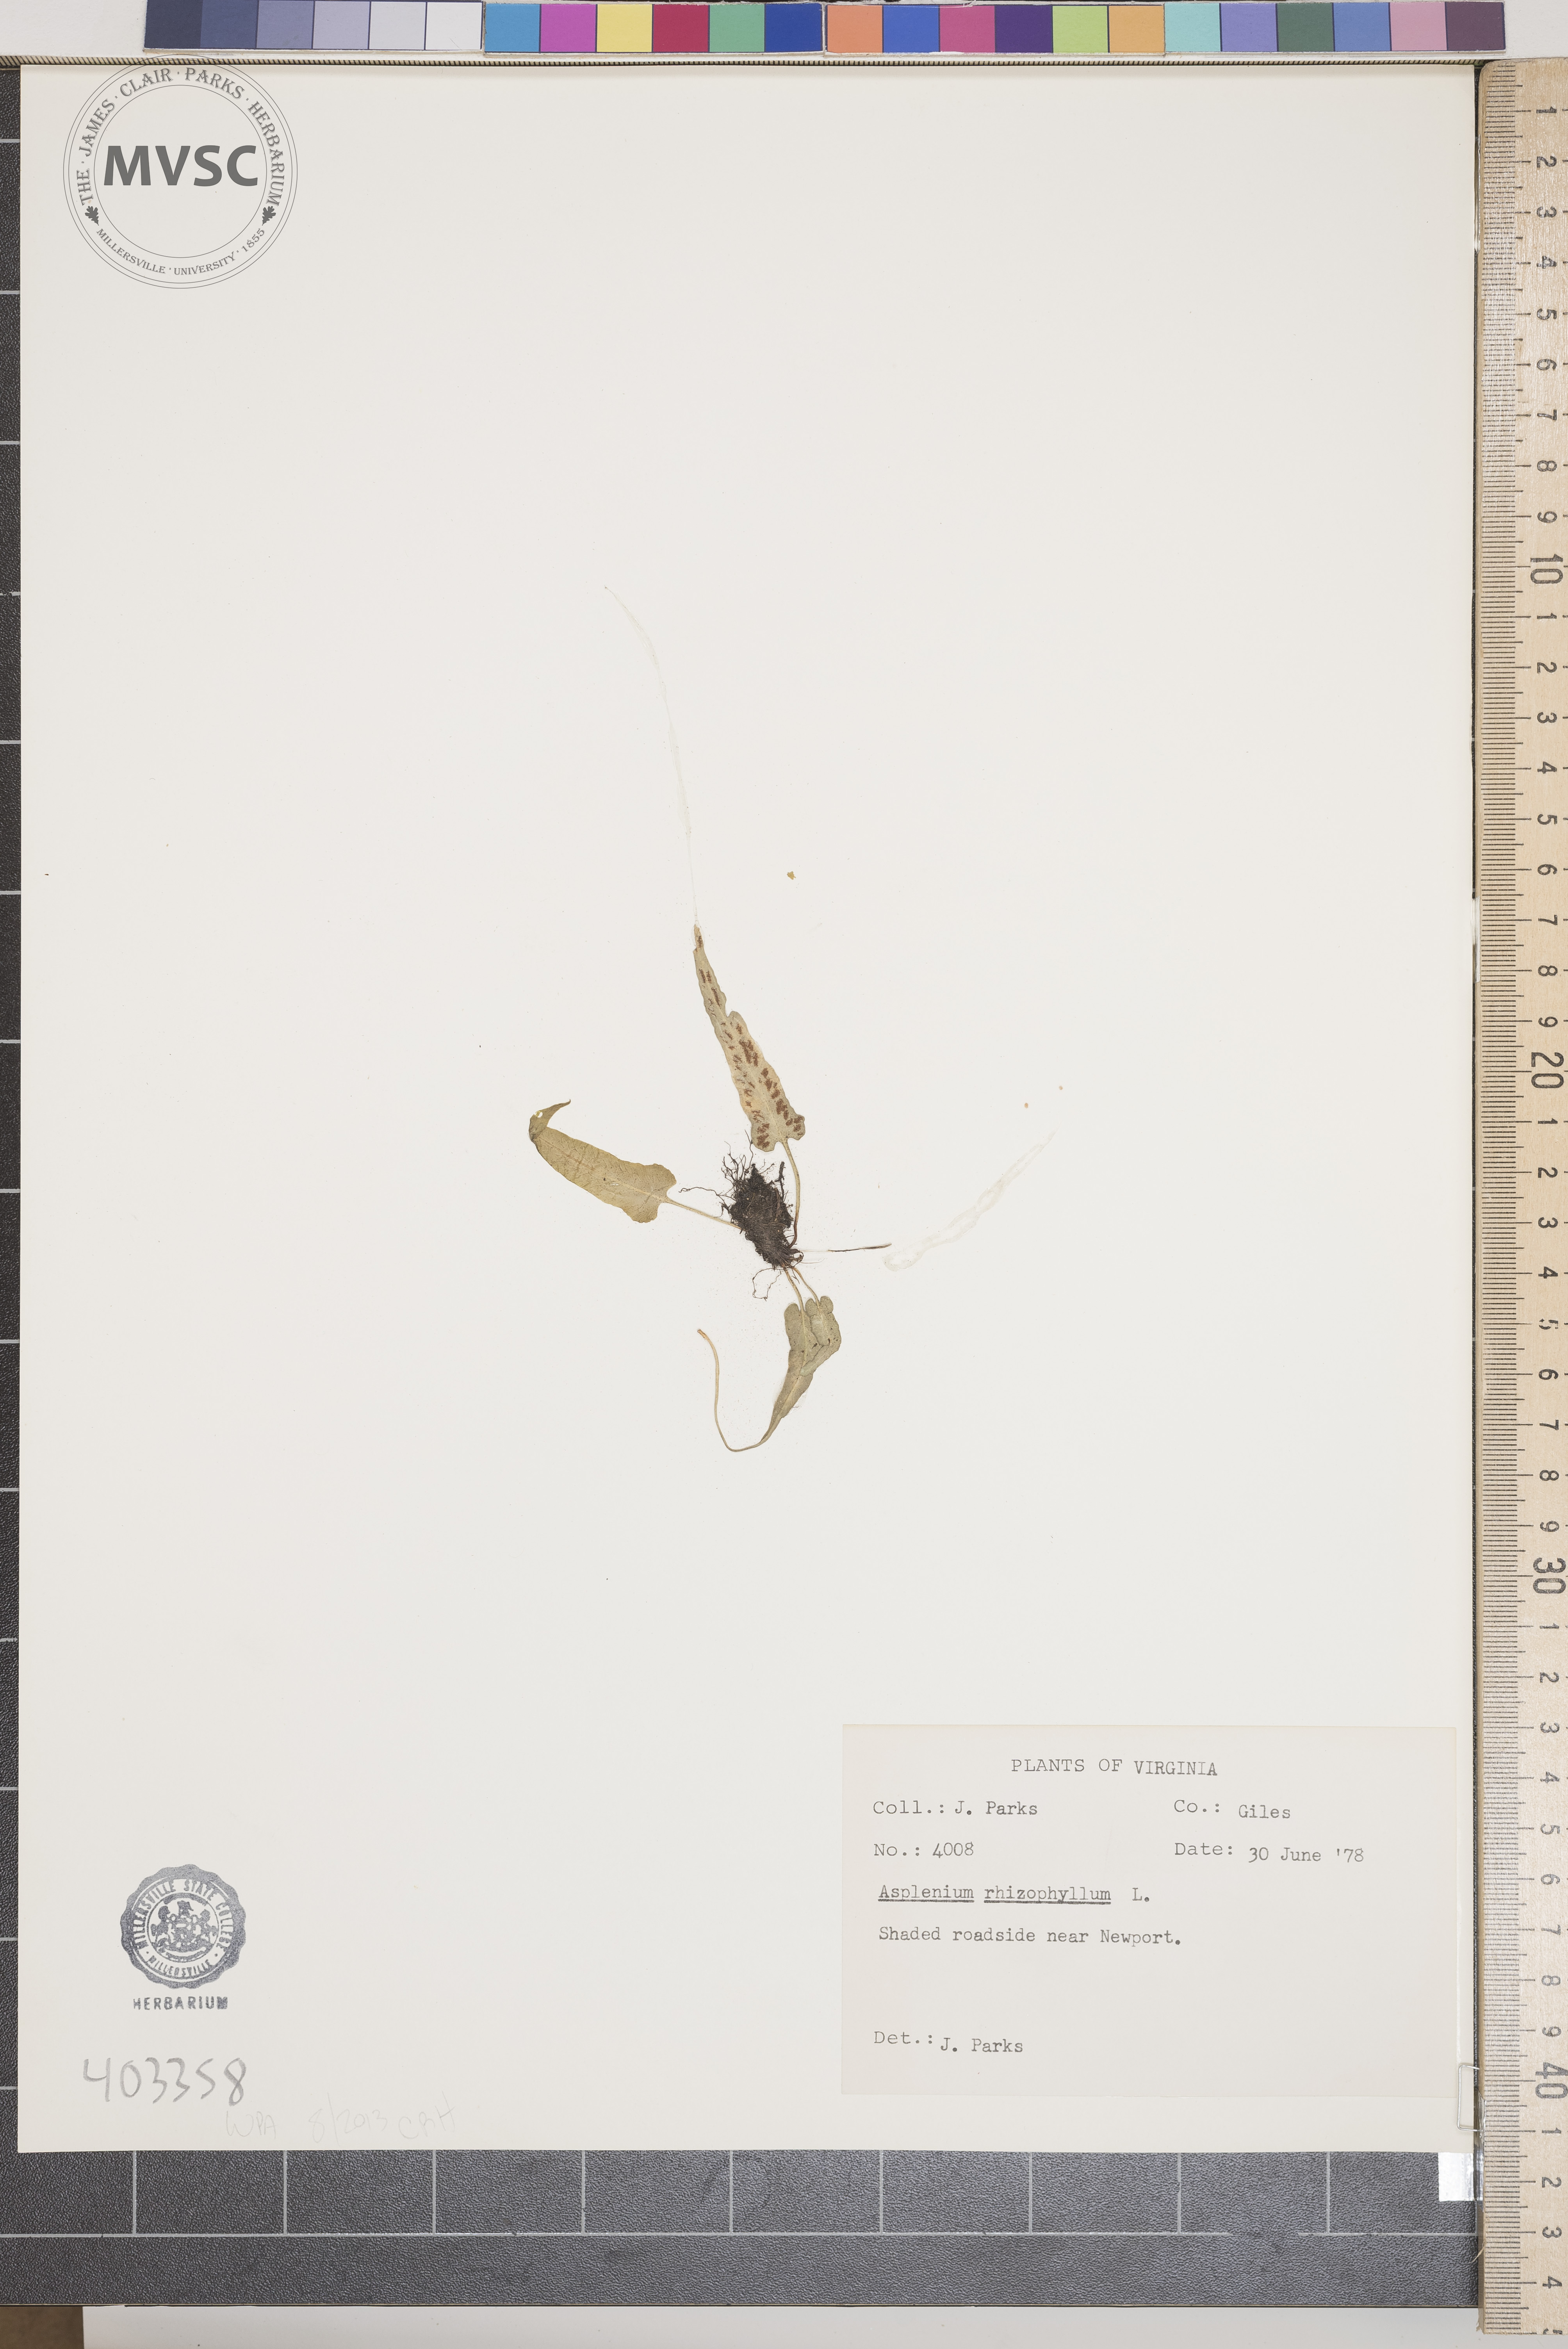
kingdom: Plantae
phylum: Tracheophyta
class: Polypodiopsida
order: Polypodiales
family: Aspleniaceae
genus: Asplenium
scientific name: Asplenium rhizophyllum
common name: Walking fern
